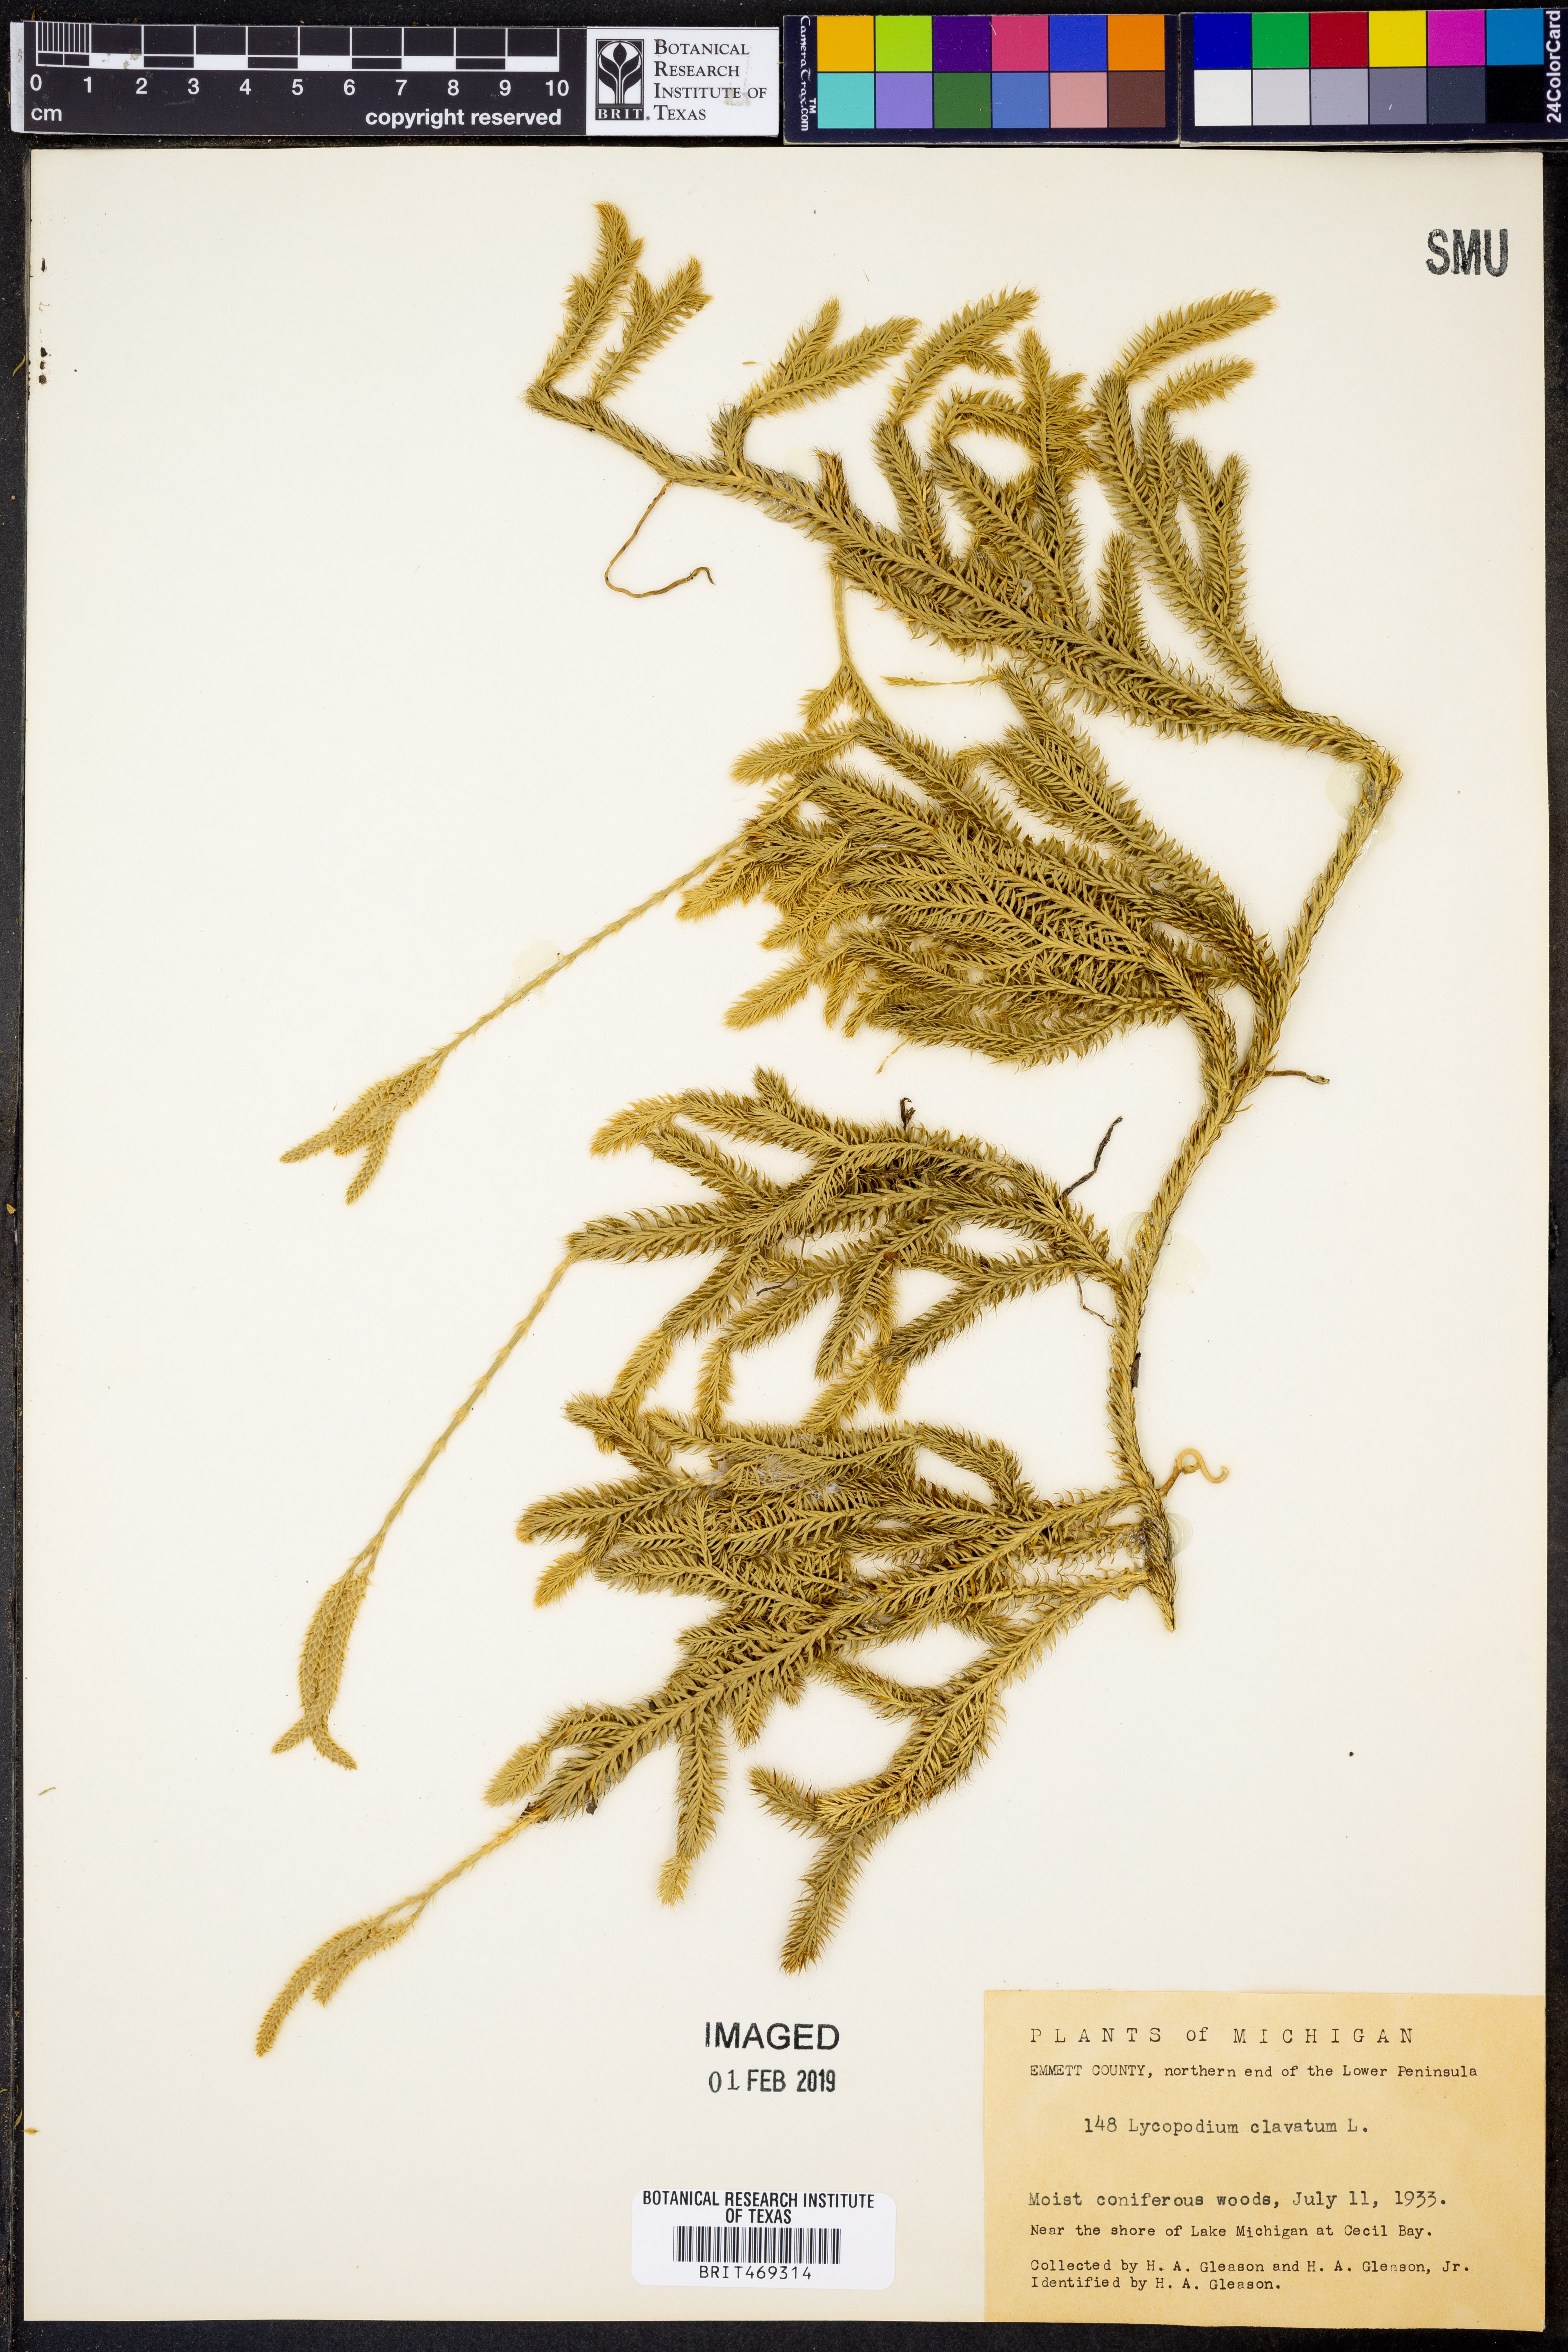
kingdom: Plantae
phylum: Tracheophyta
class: Lycopodiopsida
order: Lycopodiales
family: Lycopodiaceae
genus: Lycopodium
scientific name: Lycopodium clavatum
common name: Stag's-horn clubmoss
